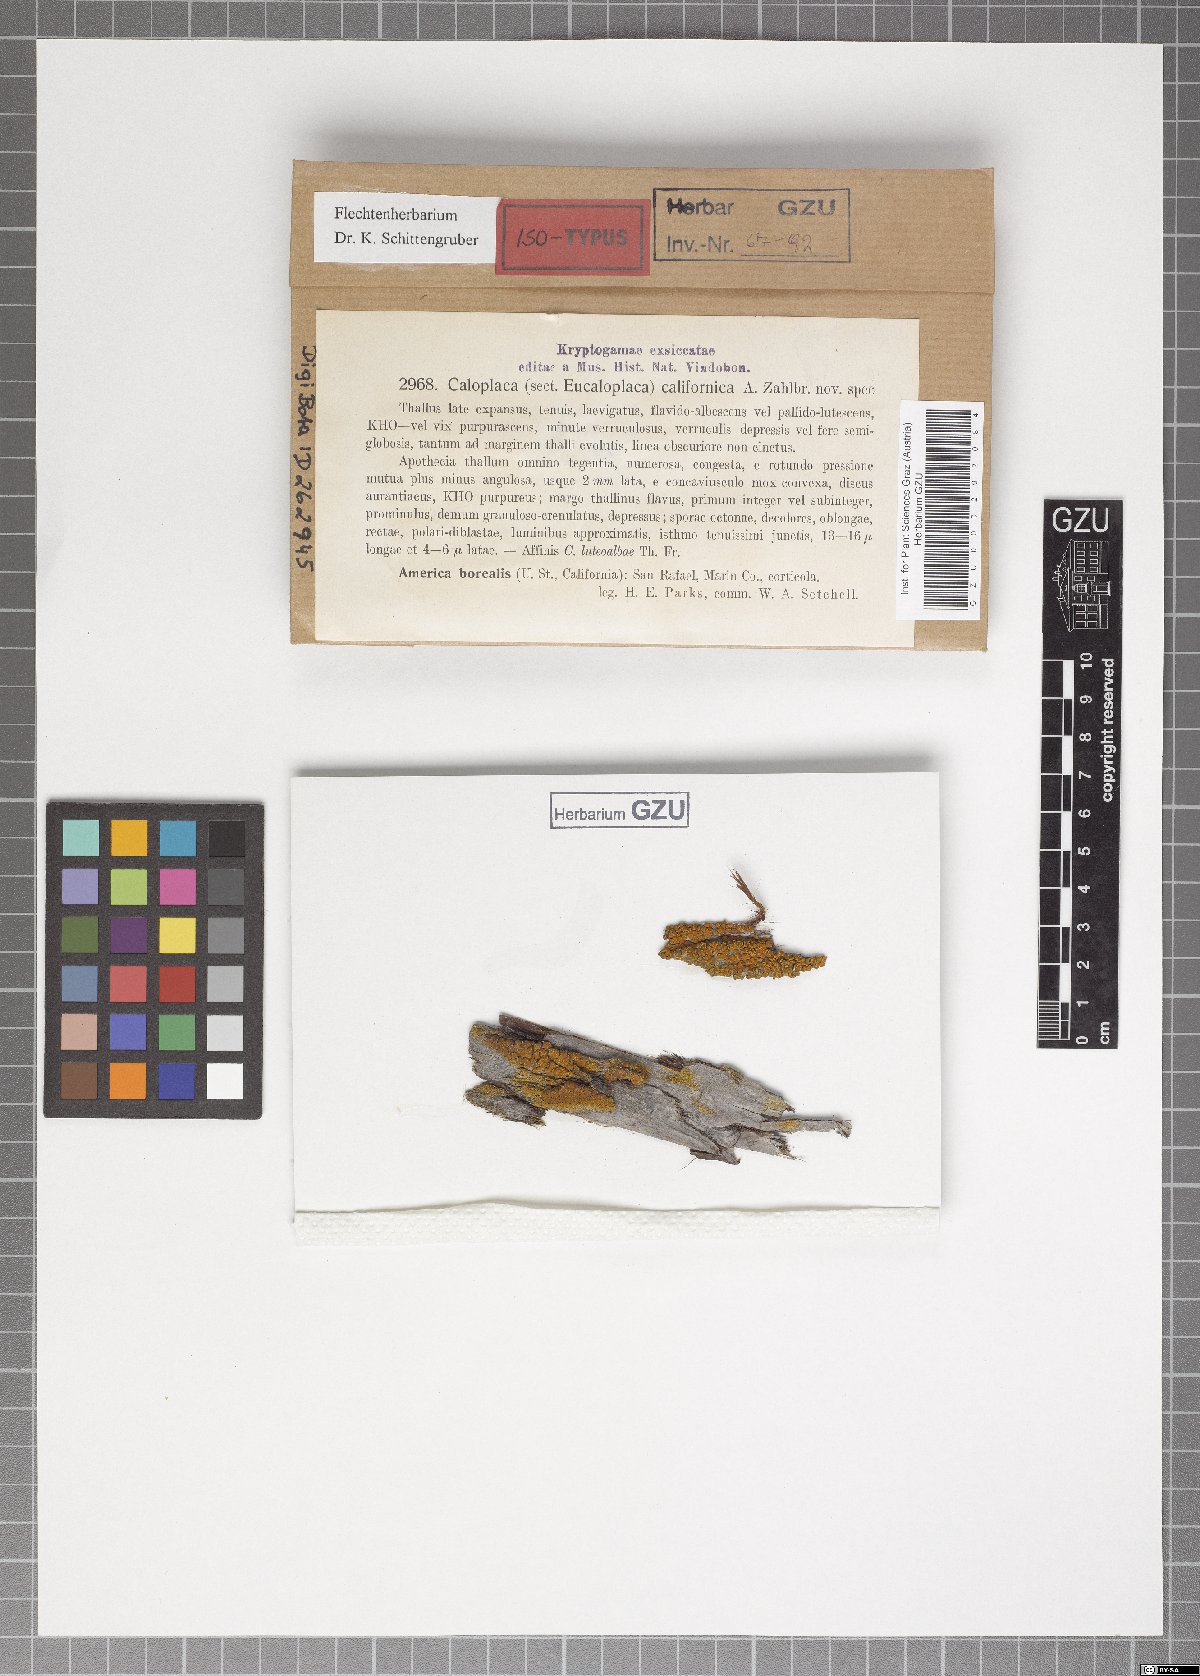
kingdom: Fungi
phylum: Ascomycota
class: Lecanoromycetes
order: Teloschistales
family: Teloschistaceae
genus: Caloplaca
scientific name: Caloplaca californica
